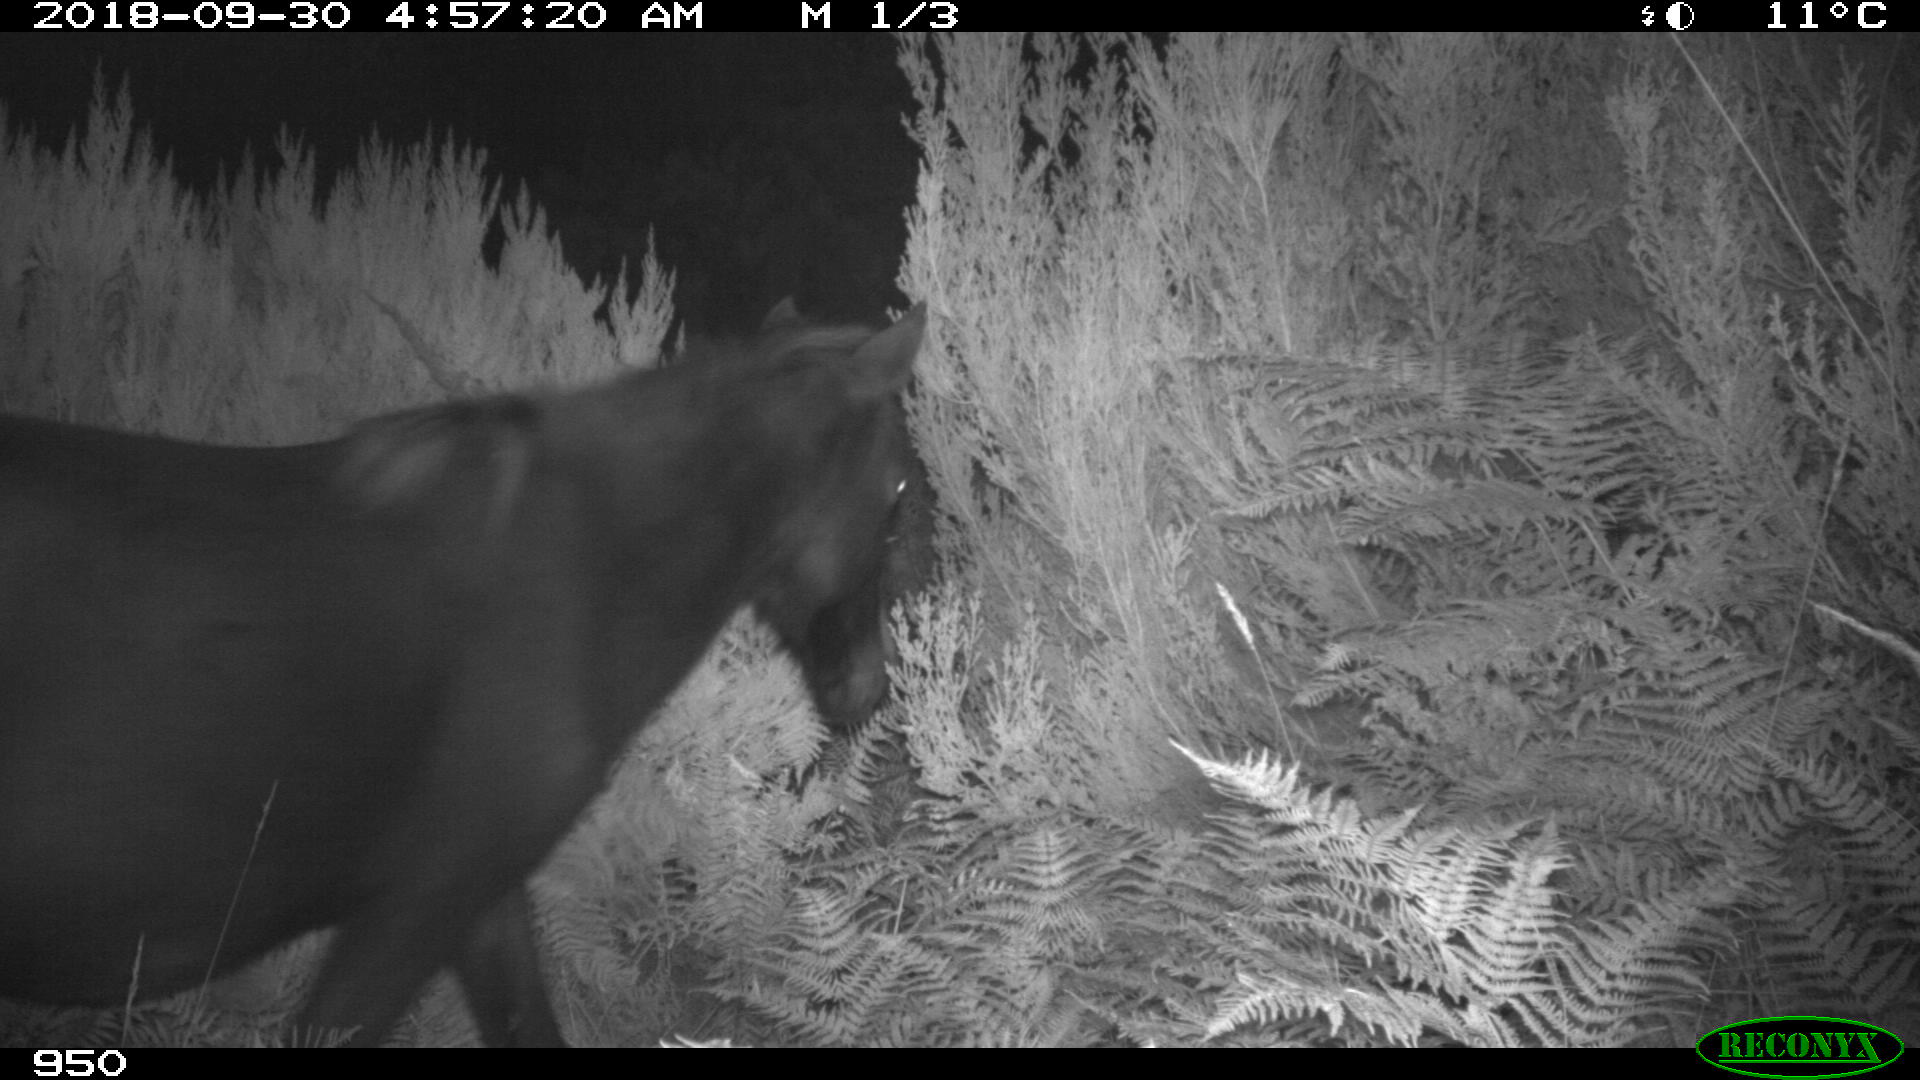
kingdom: Animalia
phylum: Chordata
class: Mammalia
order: Perissodactyla
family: Equidae
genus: Equus
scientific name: Equus caballus
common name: Horse
